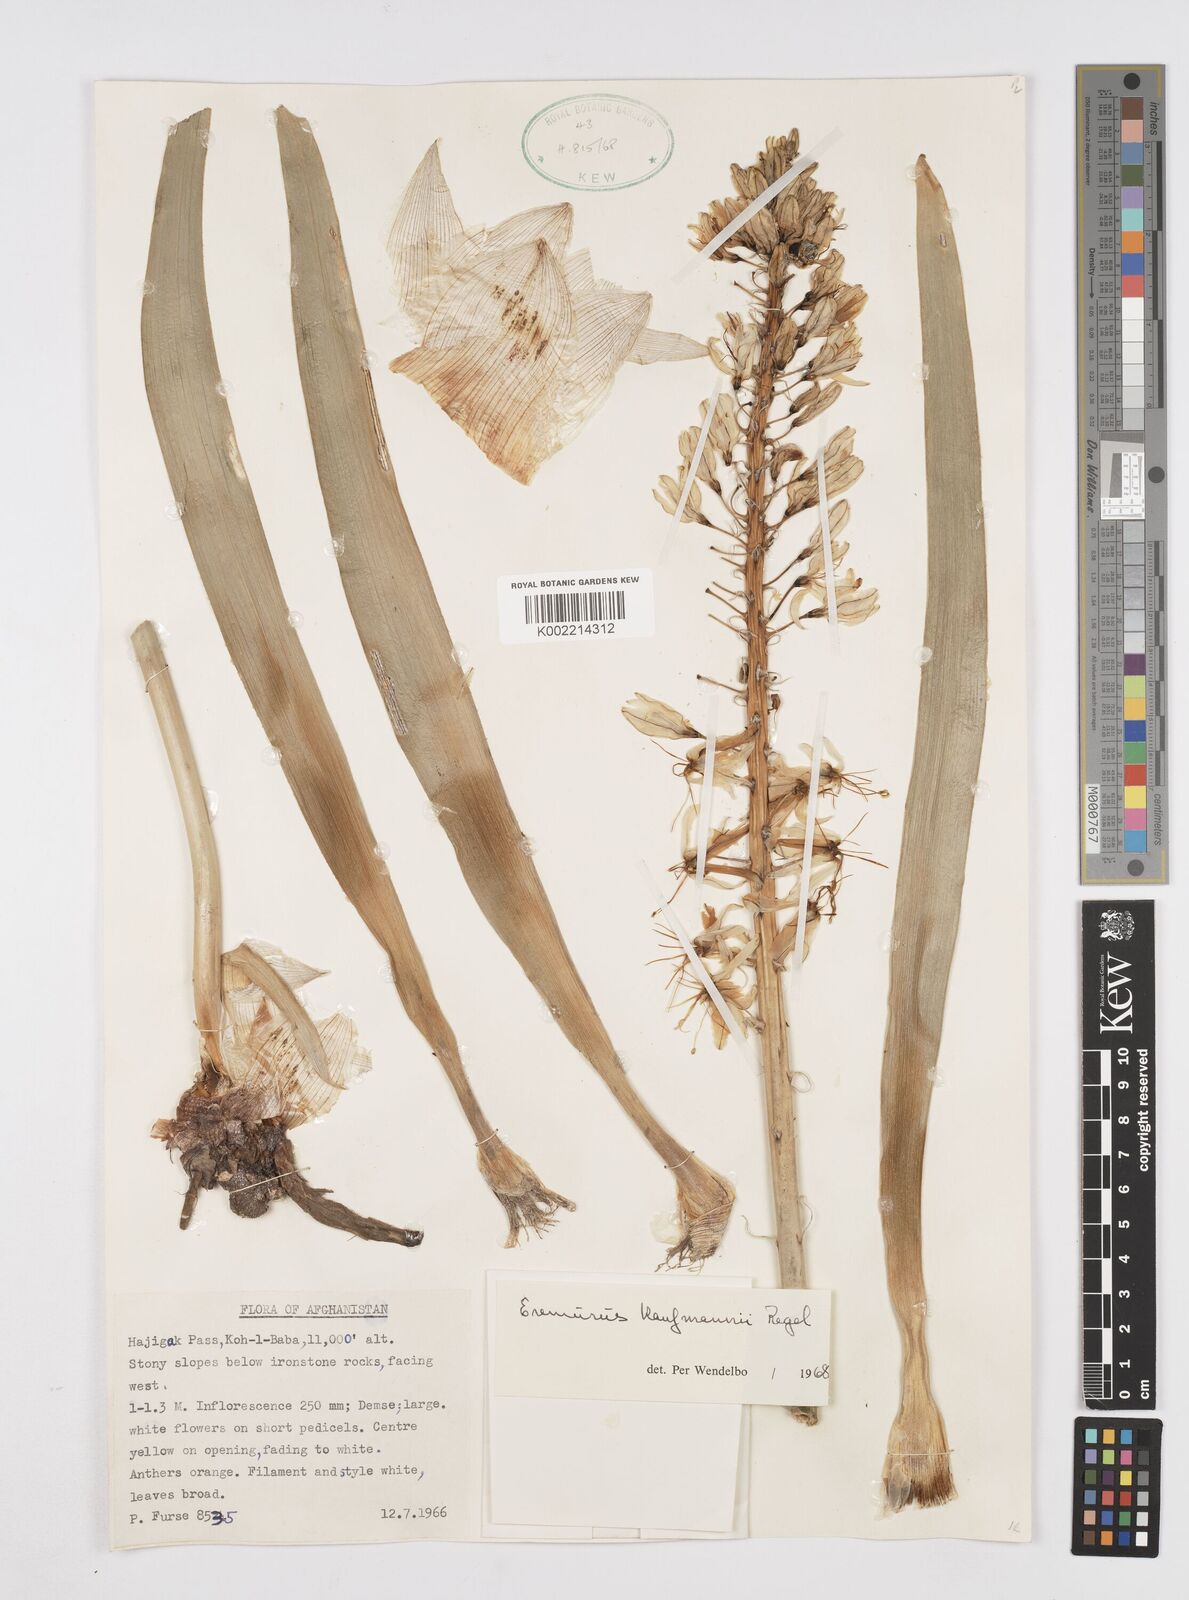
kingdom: Plantae
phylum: Tracheophyta
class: Liliopsida
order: Asparagales
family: Asphodelaceae
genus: Eremurus
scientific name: Eremurus kaufmannii
